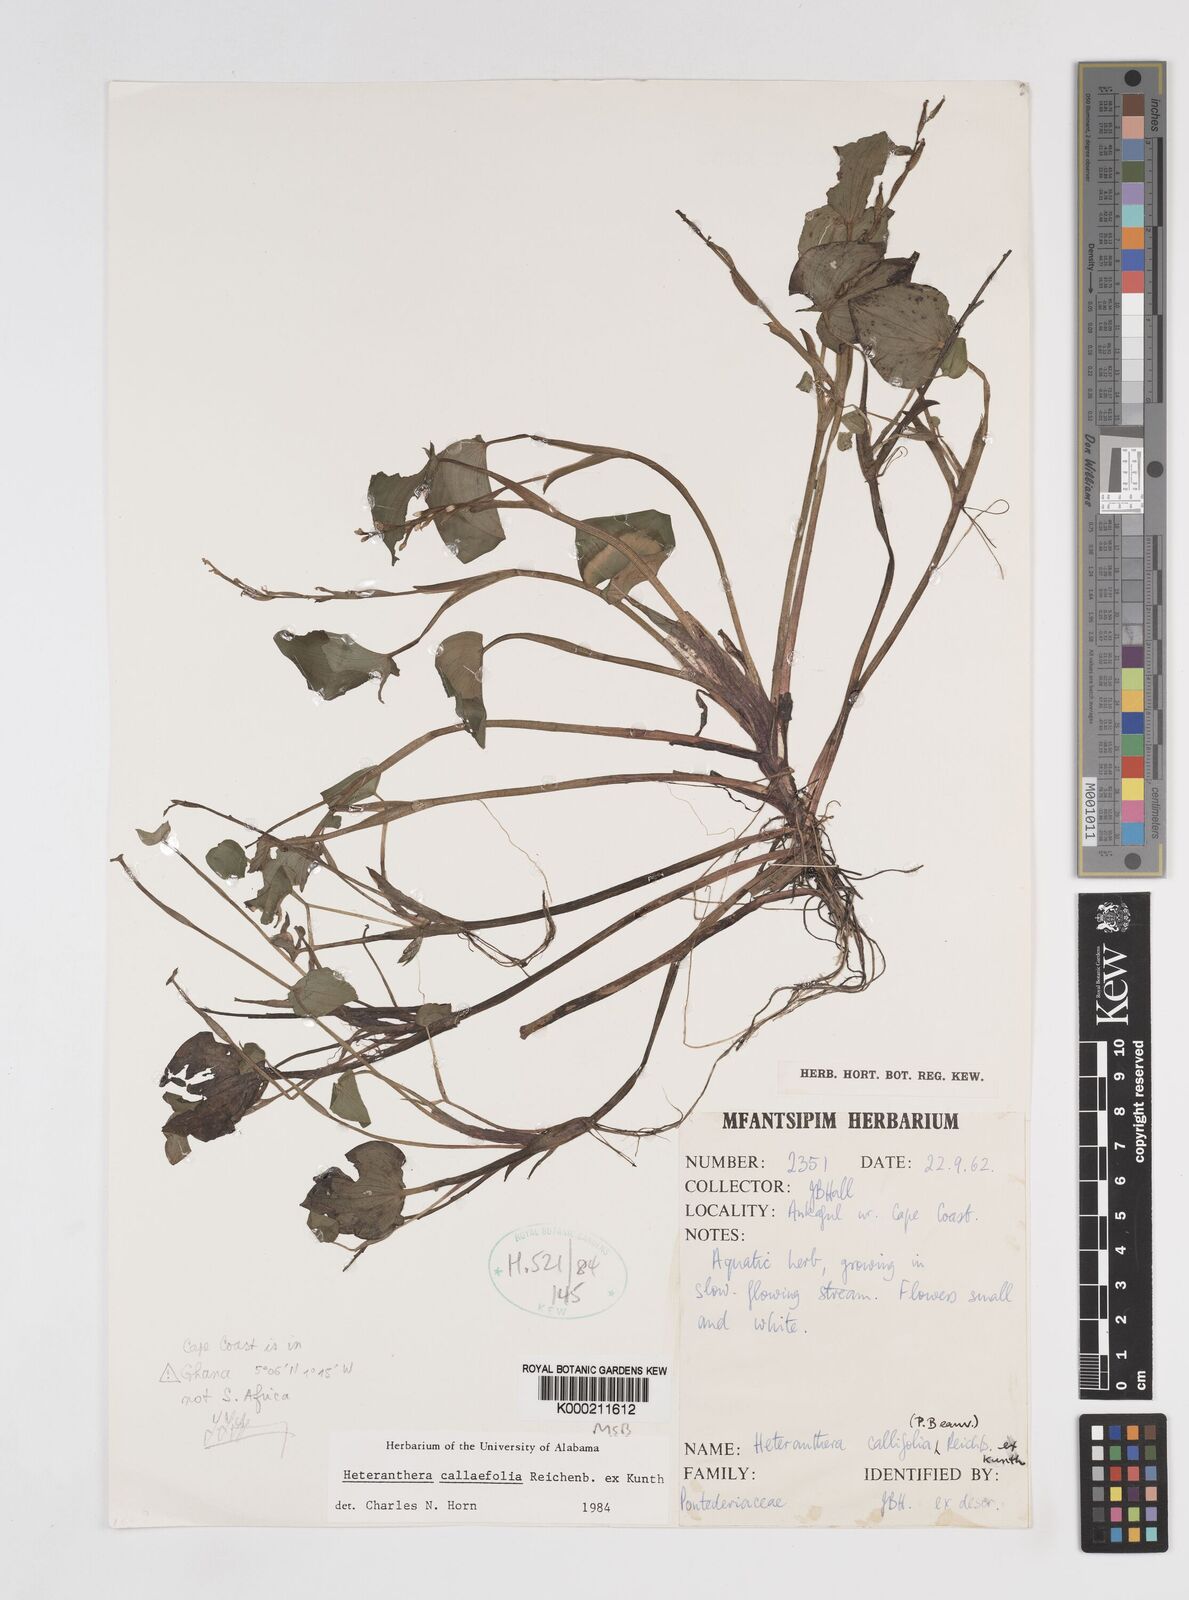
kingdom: Plantae
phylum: Tracheophyta
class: Liliopsida
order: Commelinales
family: Pontederiaceae
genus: Heteranthera
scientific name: Heteranthera callifolia
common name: Mud plantain
